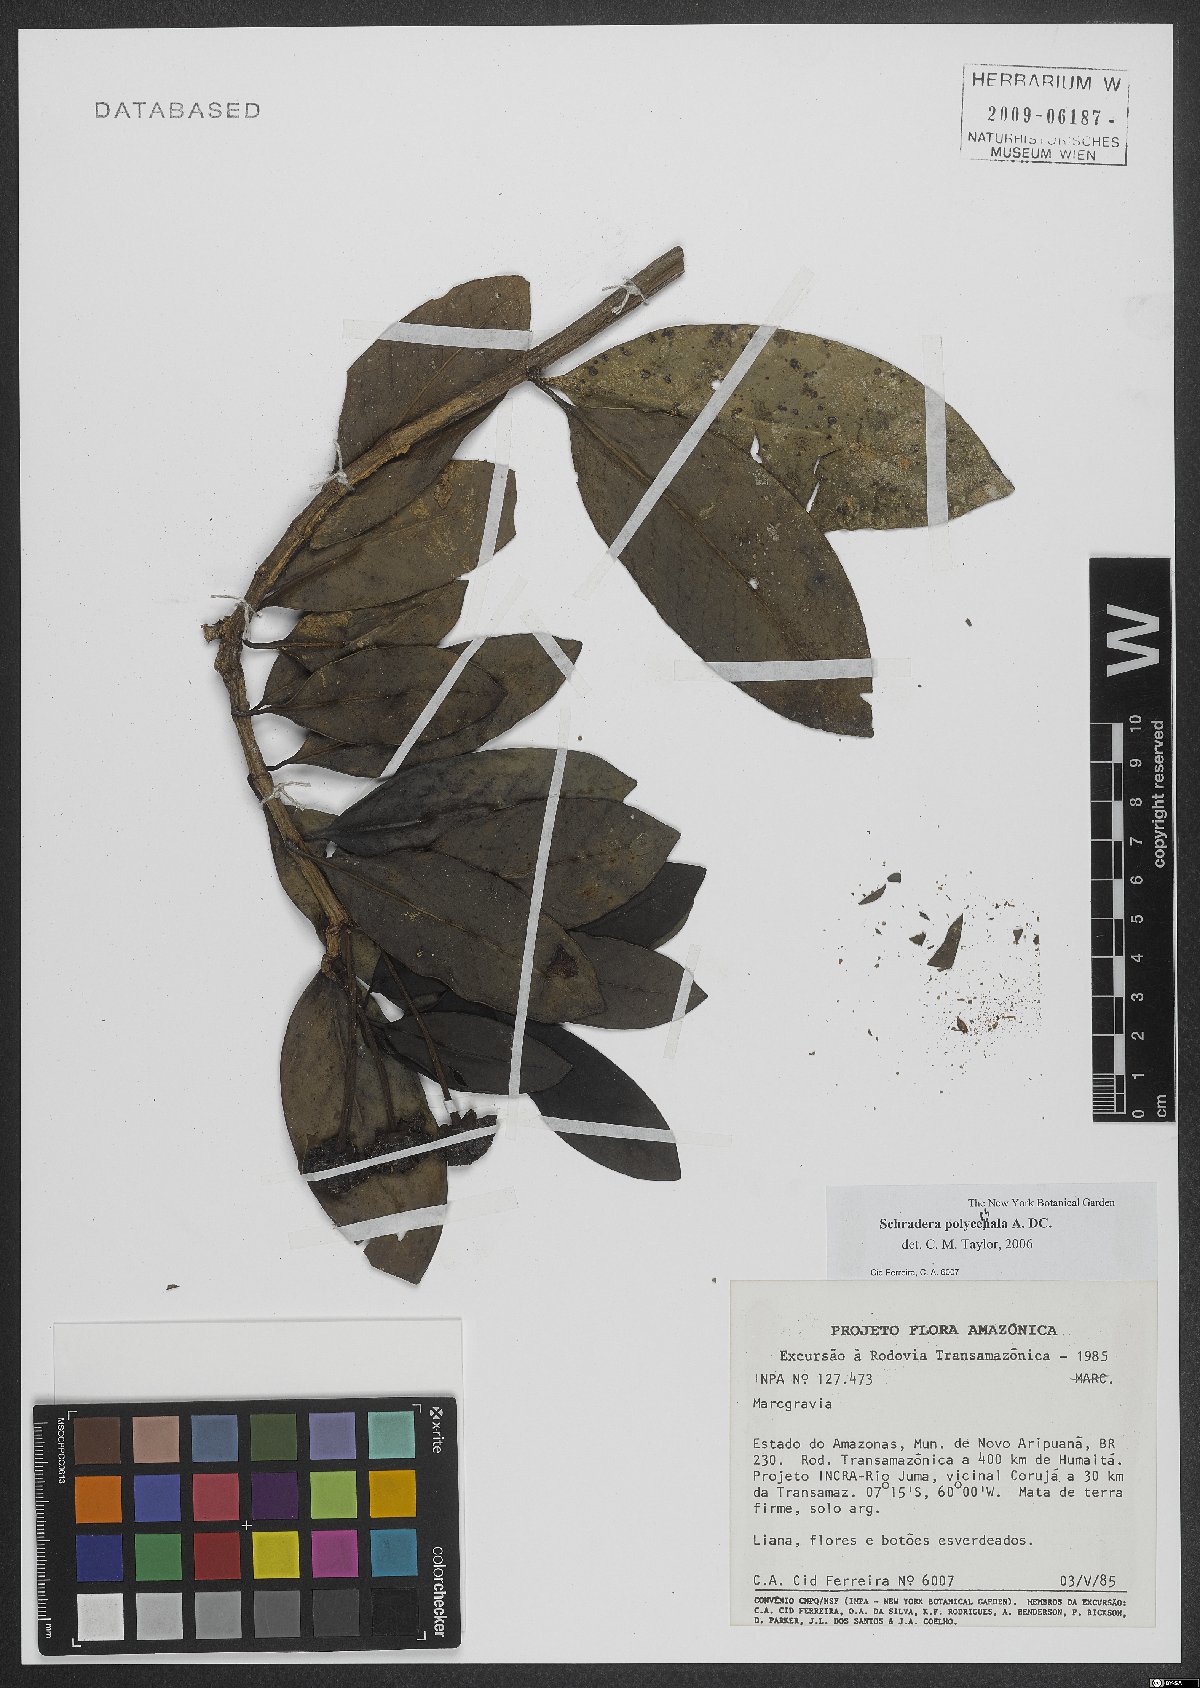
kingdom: Plantae
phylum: Tracheophyta
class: Magnoliopsida
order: Gentianales
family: Rubiaceae
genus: Schradera
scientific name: Schradera polycephala
